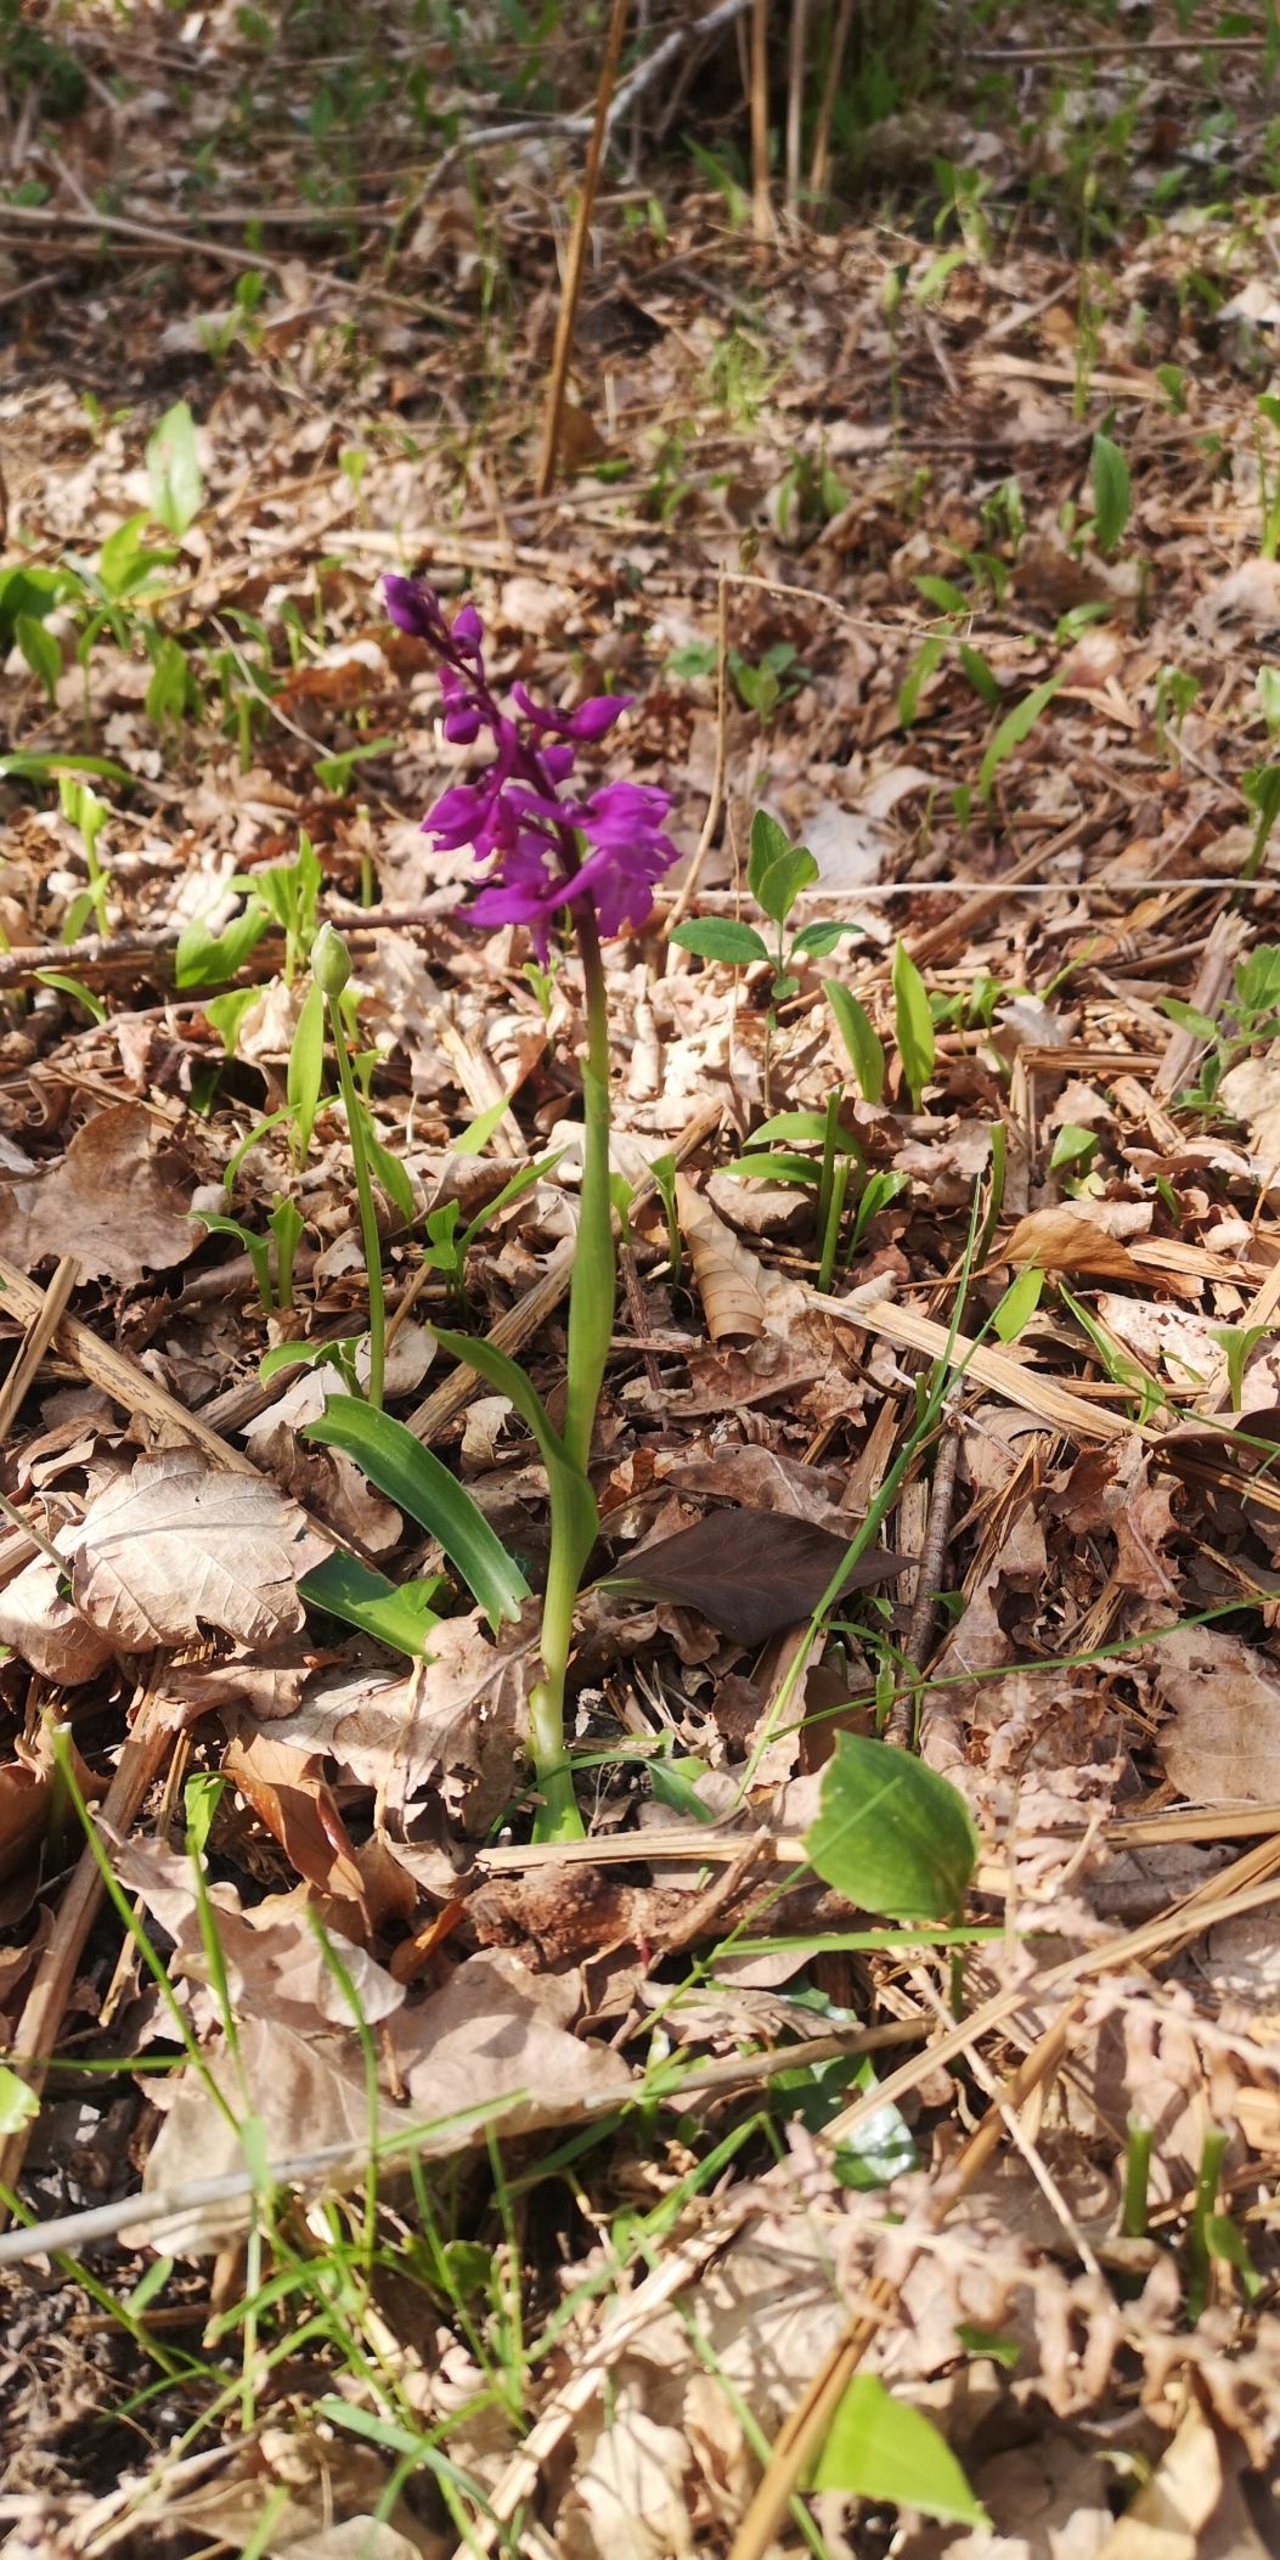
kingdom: Plantae
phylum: Tracheophyta
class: Liliopsida
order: Asparagales
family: Orchidaceae
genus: Orchis
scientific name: Orchis mascula
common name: Tyndakset gøgeurt
